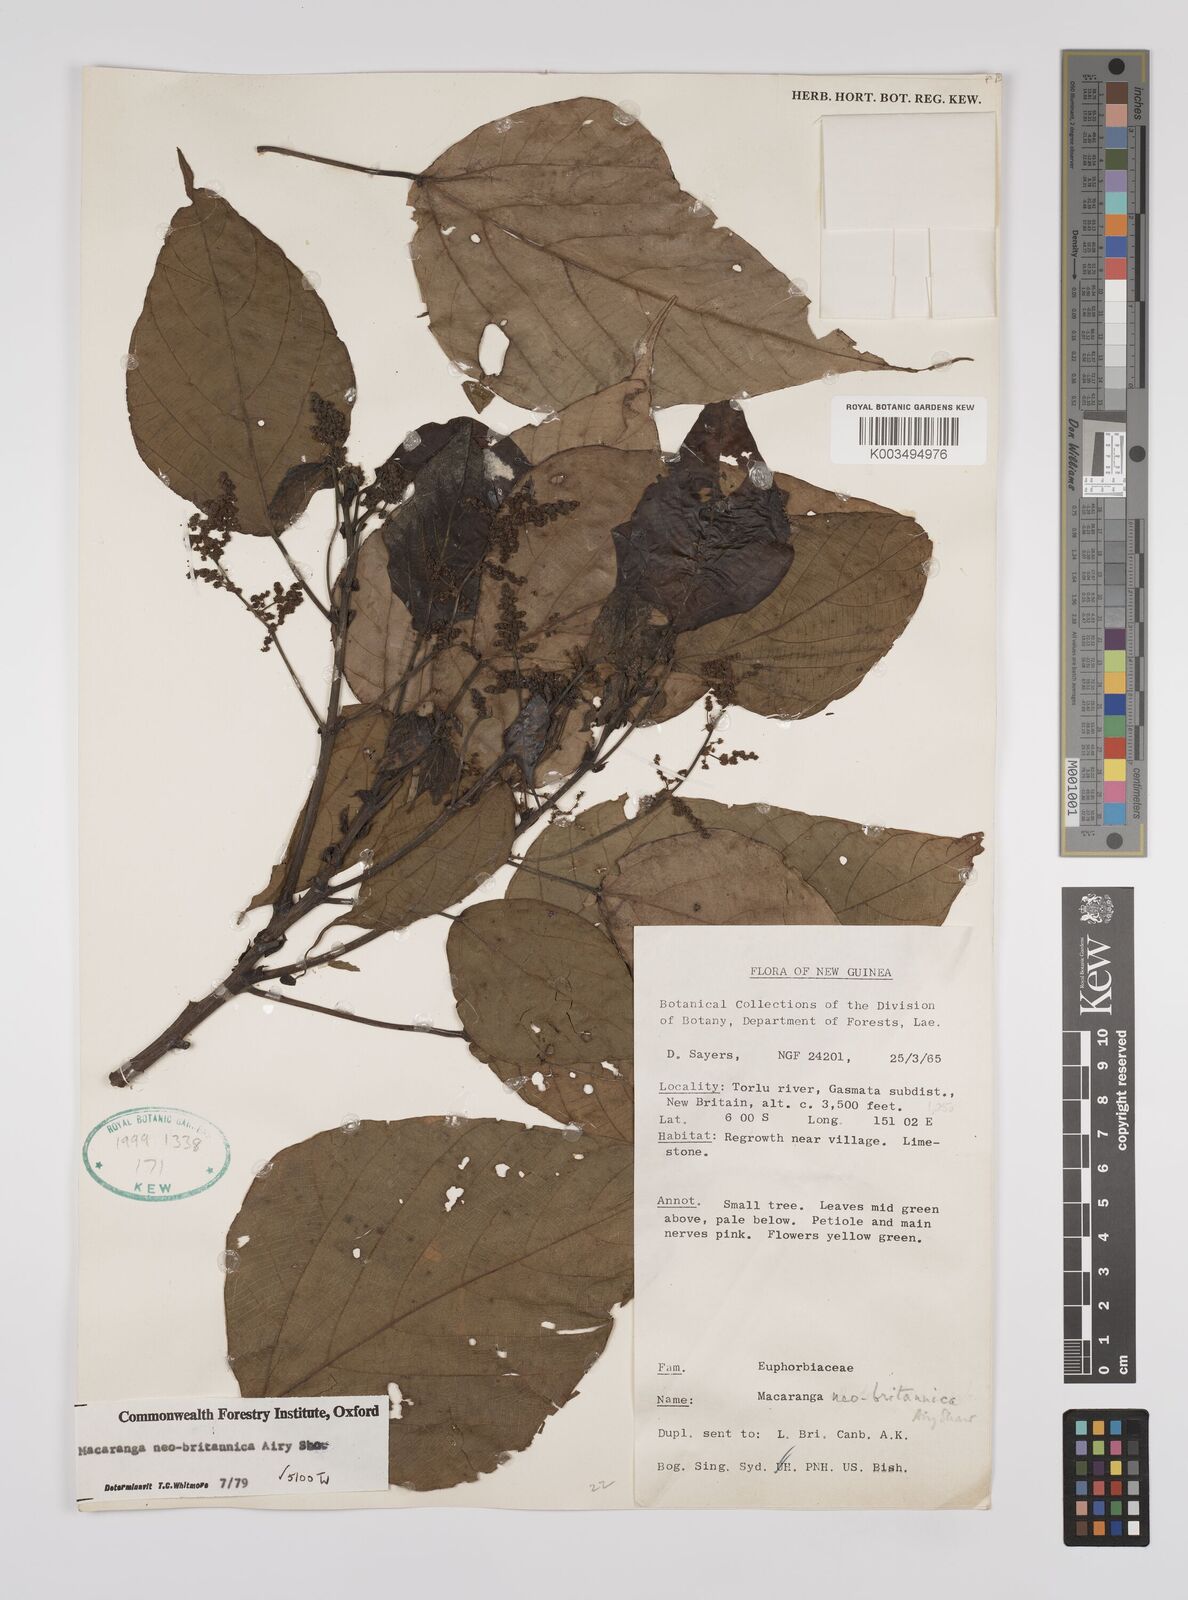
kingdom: Plantae
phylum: Tracheophyta
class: Magnoliopsida
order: Malpighiales
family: Euphorbiaceae
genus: Macaranga
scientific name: Macaranga neobritannica
